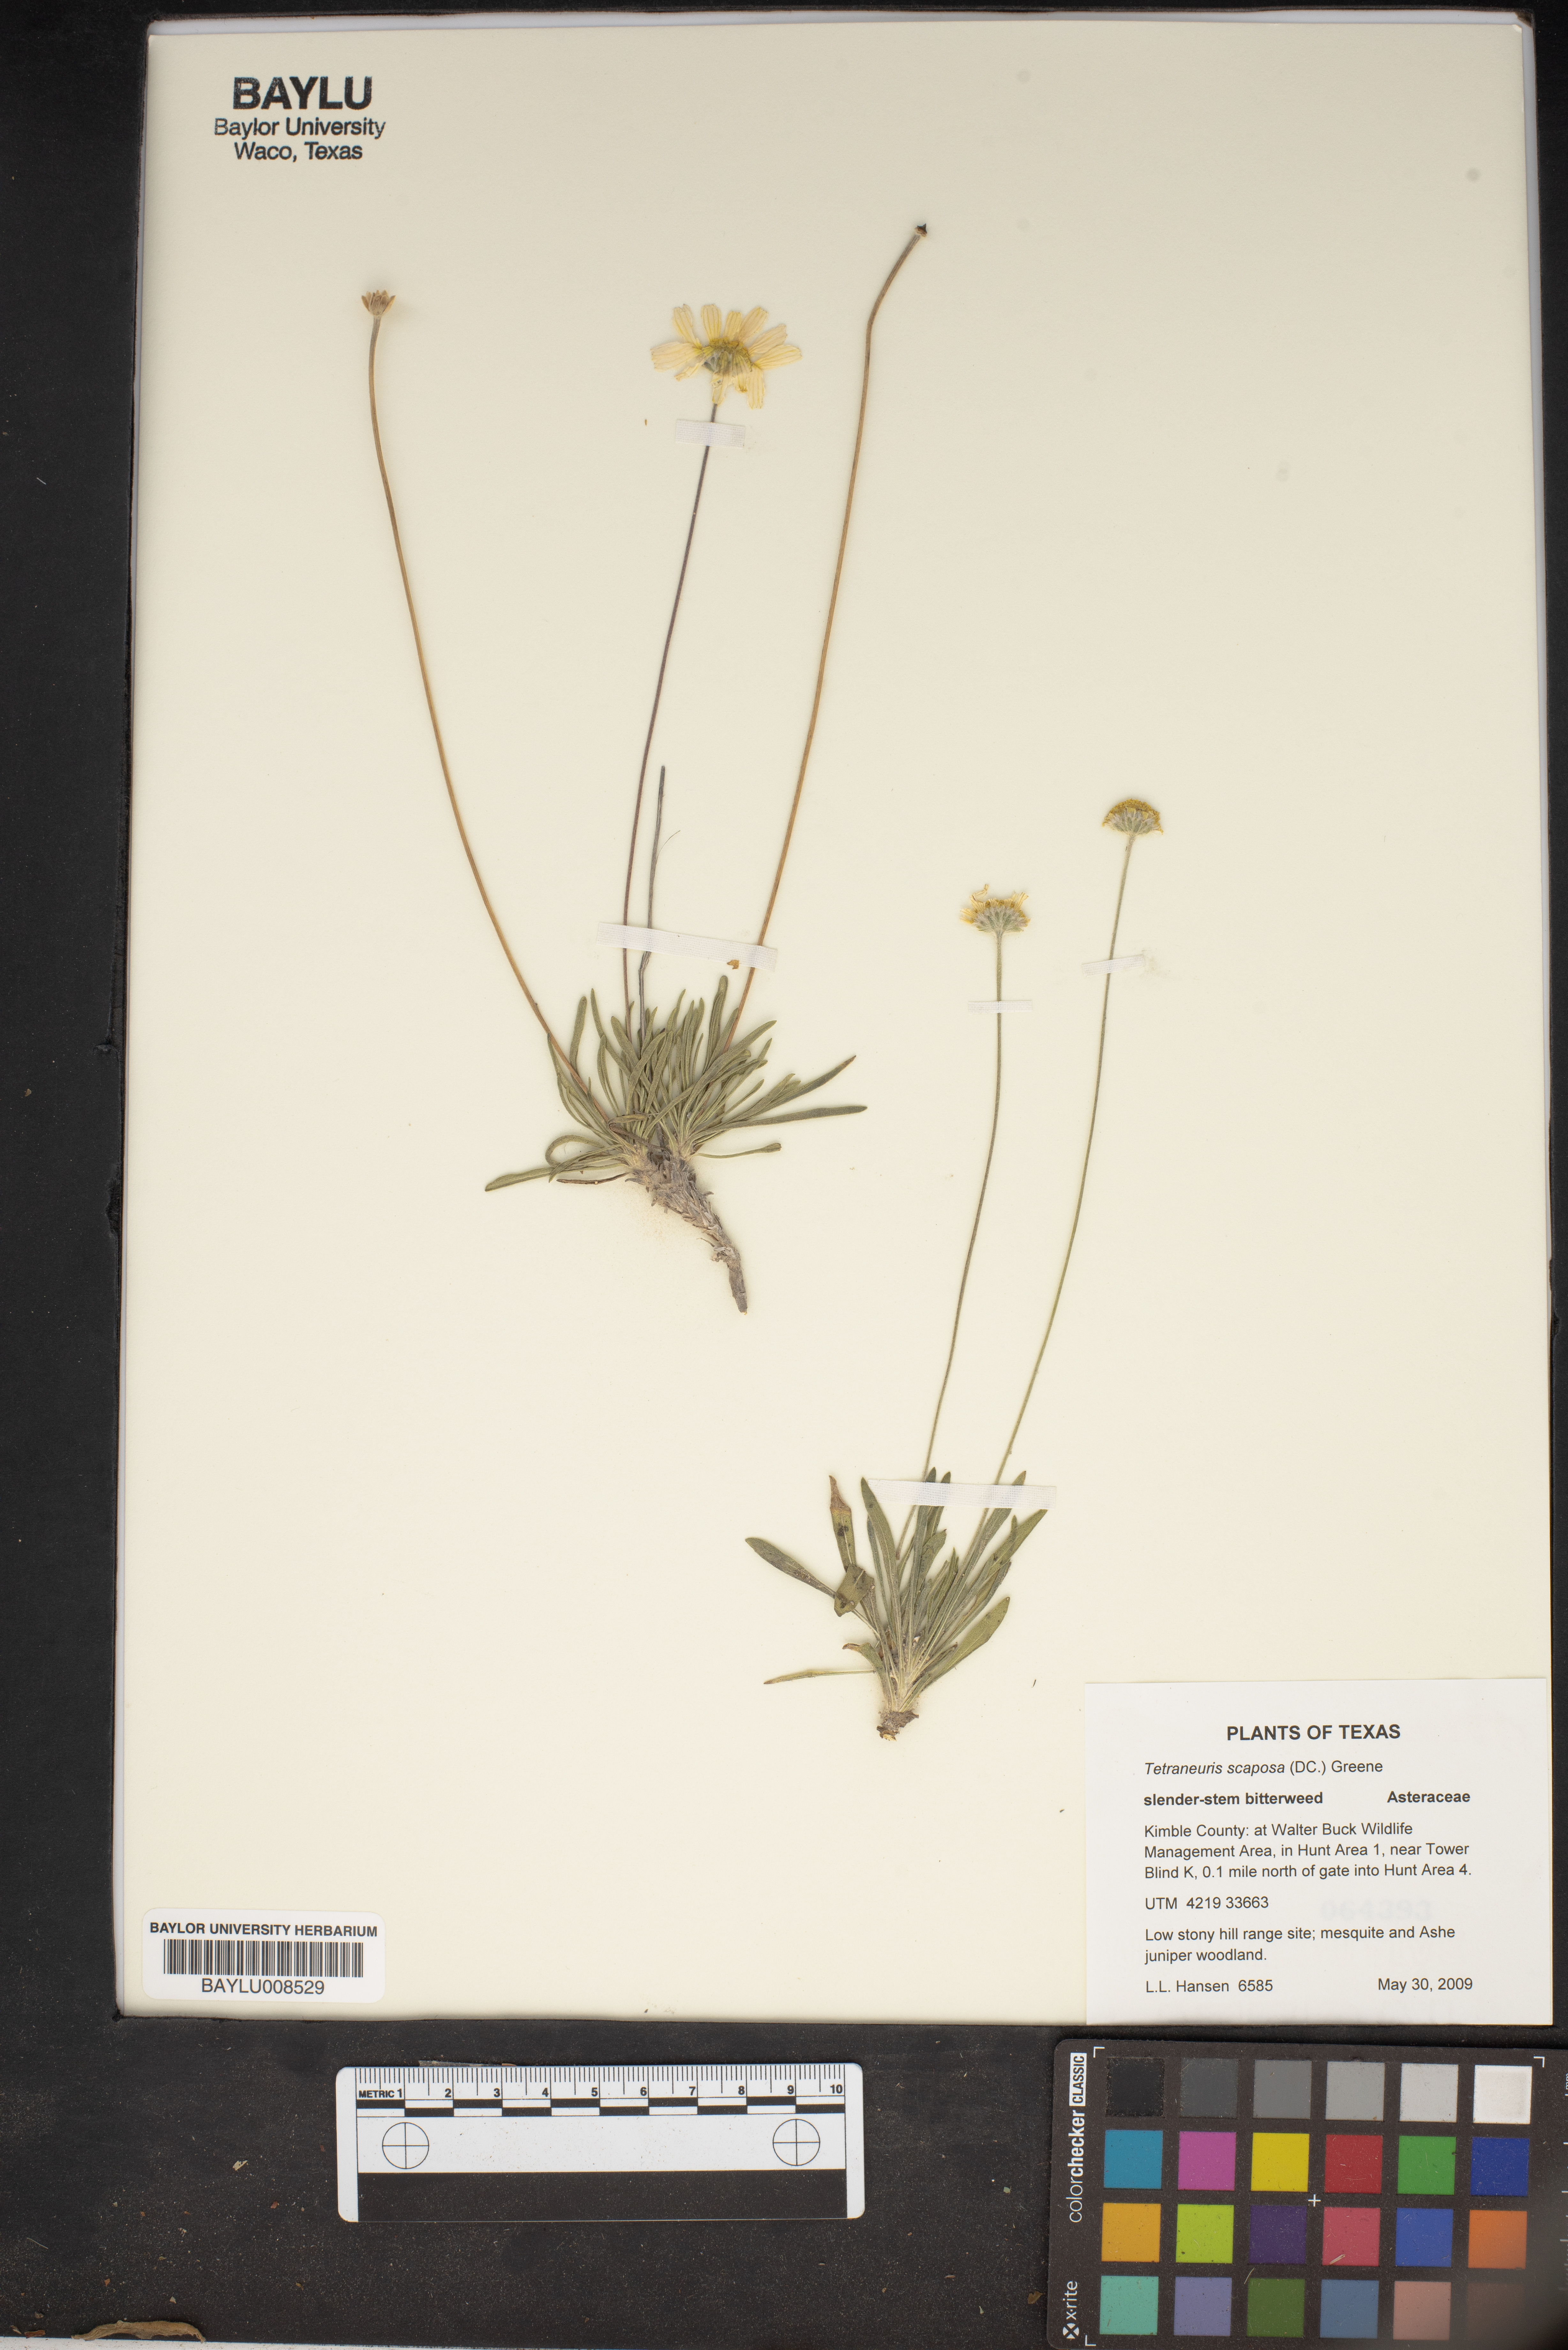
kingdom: Plantae
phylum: Tracheophyta
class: Magnoliopsida
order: Asterales
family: Asteraceae
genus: Tetraneuris
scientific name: Tetraneuris scaposa
